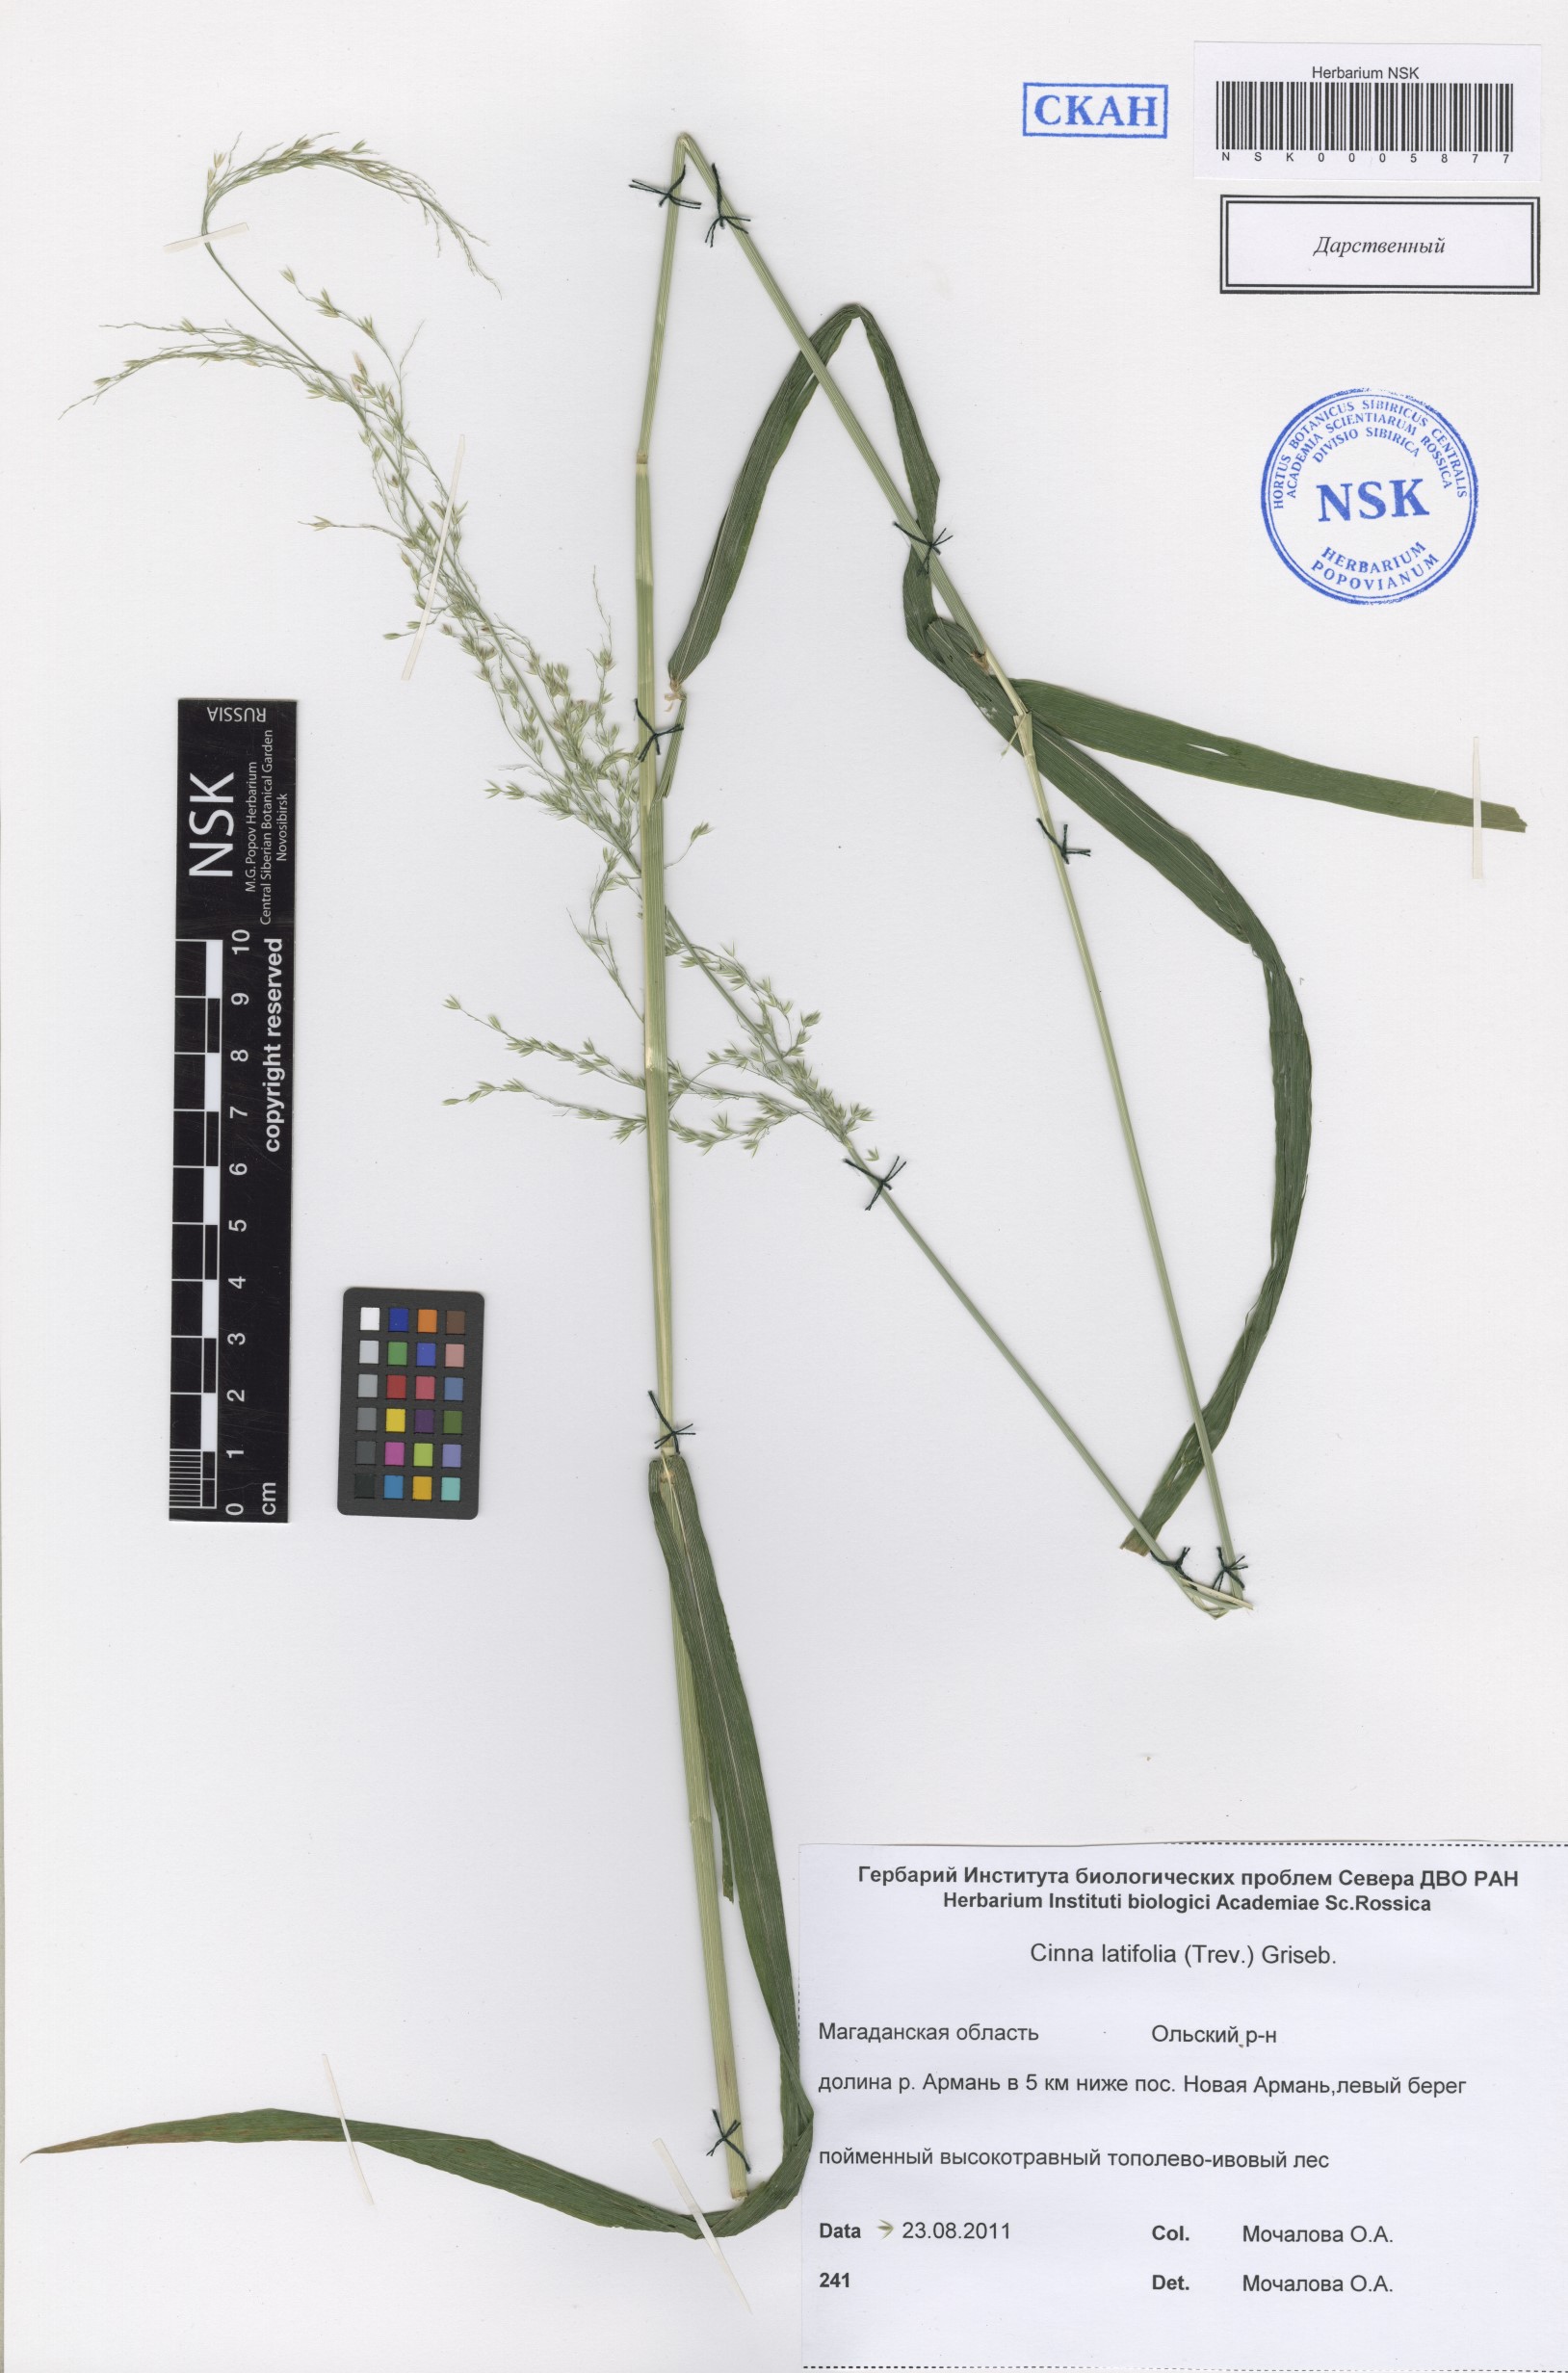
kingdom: Plantae
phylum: Tracheophyta
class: Liliopsida
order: Poales
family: Poaceae
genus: Cinna
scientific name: Cinna latifolia
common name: Drooping woodreed
